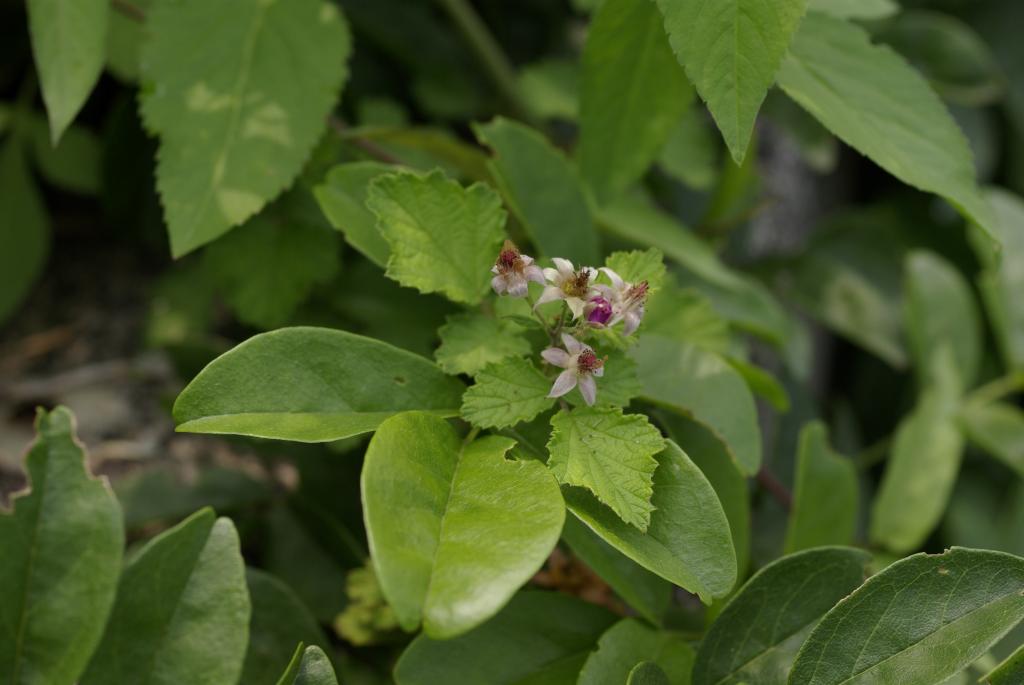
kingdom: Plantae
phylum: Tracheophyta
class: Magnoliopsida
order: Rosales
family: Rosaceae
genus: Rubus
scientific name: Rubus parvifolius
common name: Threeleaf blackberry
